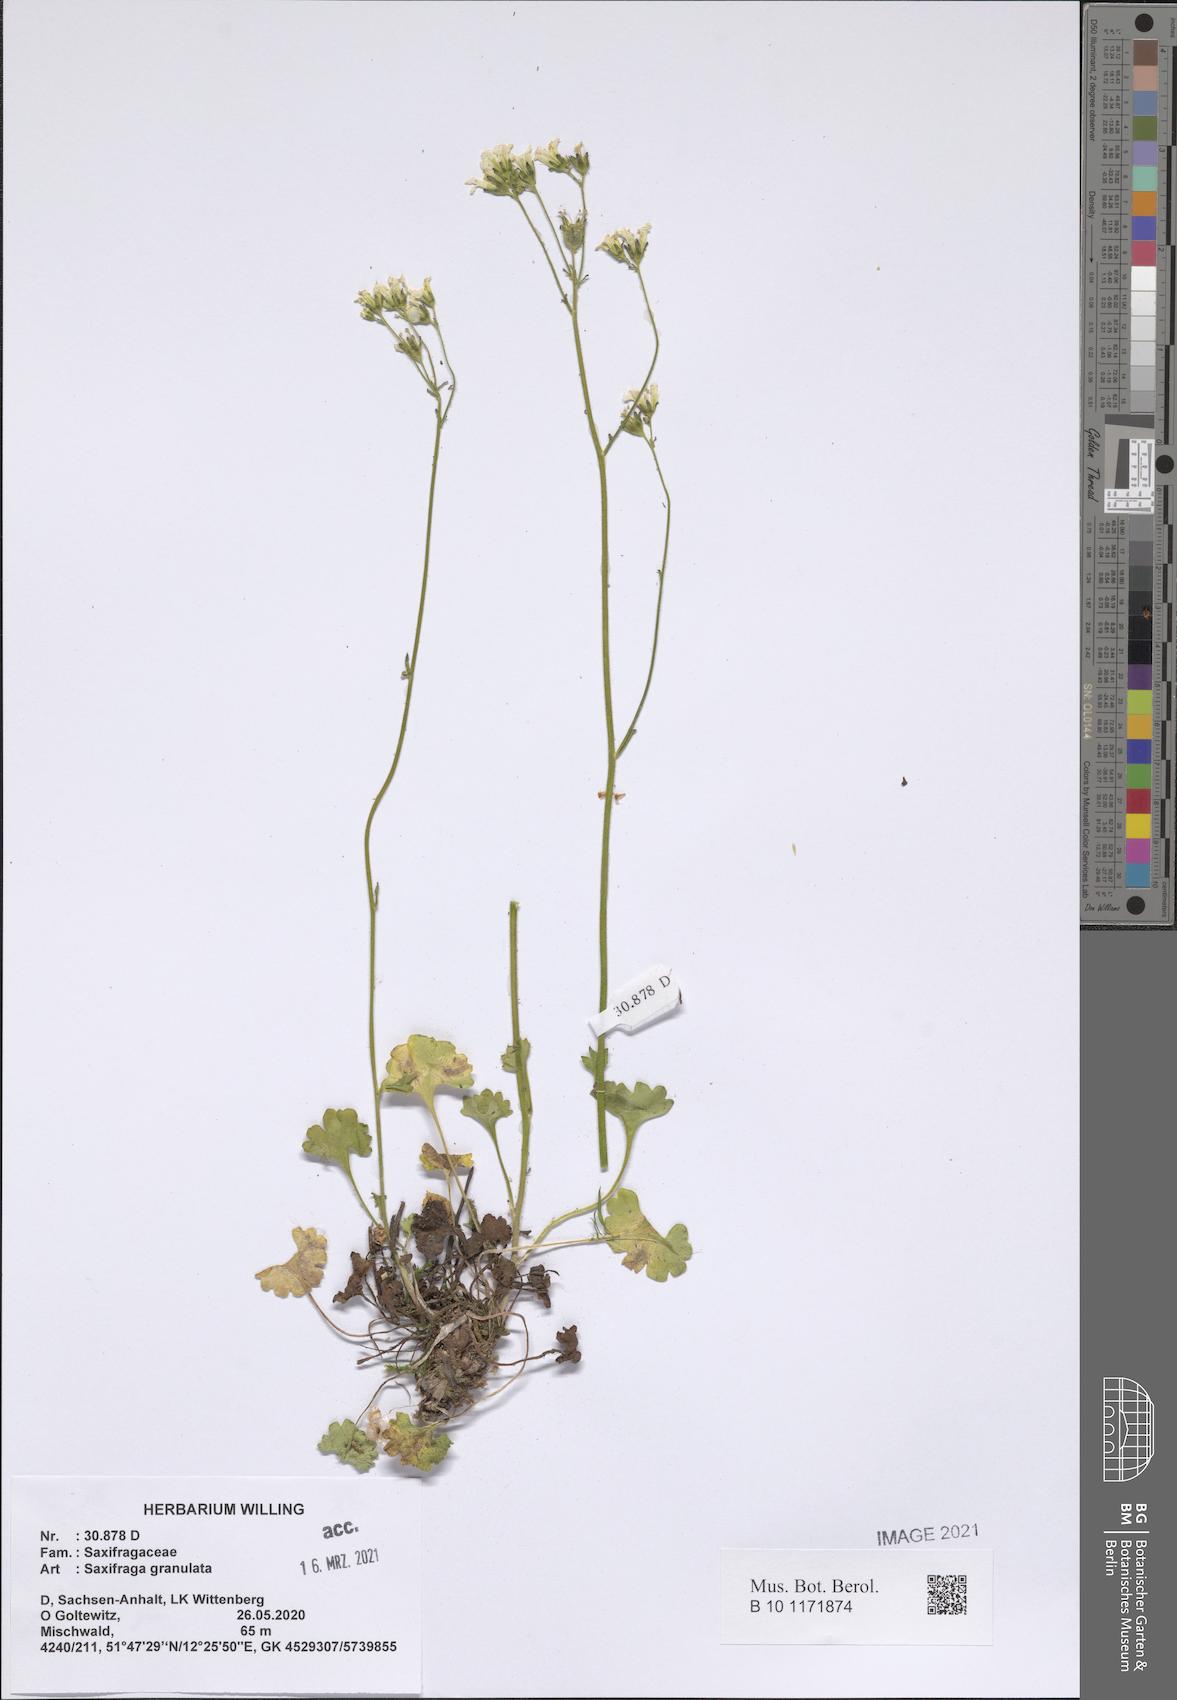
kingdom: Plantae
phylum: Tracheophyta
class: Magnoliopsida
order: Saxifragales
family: Saxifragaceae
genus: Saxifraga
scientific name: Saxifraga granulata
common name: Meadow saxifrage
